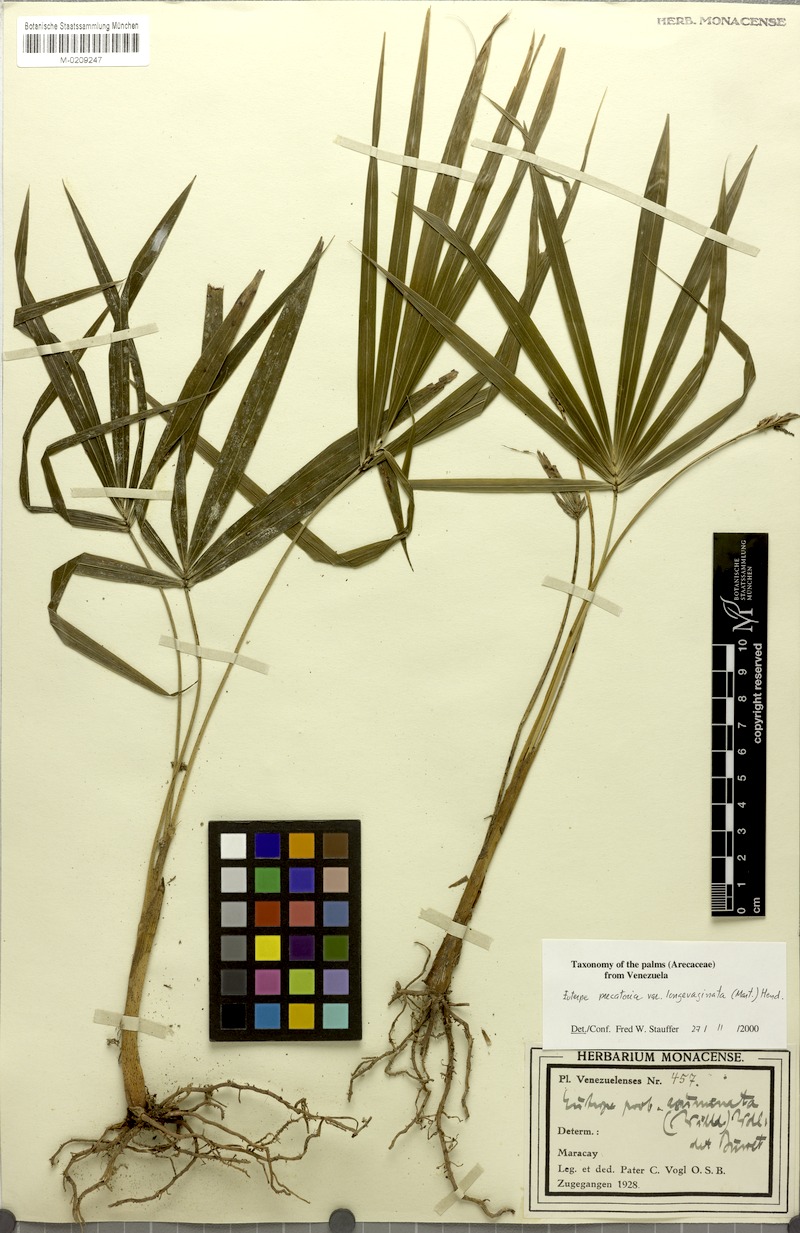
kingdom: Plantae
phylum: Tracheophyta
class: Liliopsida
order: Arecales
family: Arecaceae
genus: Euterpe
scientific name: Euterpe precatoria
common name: Mountain-cabbage
